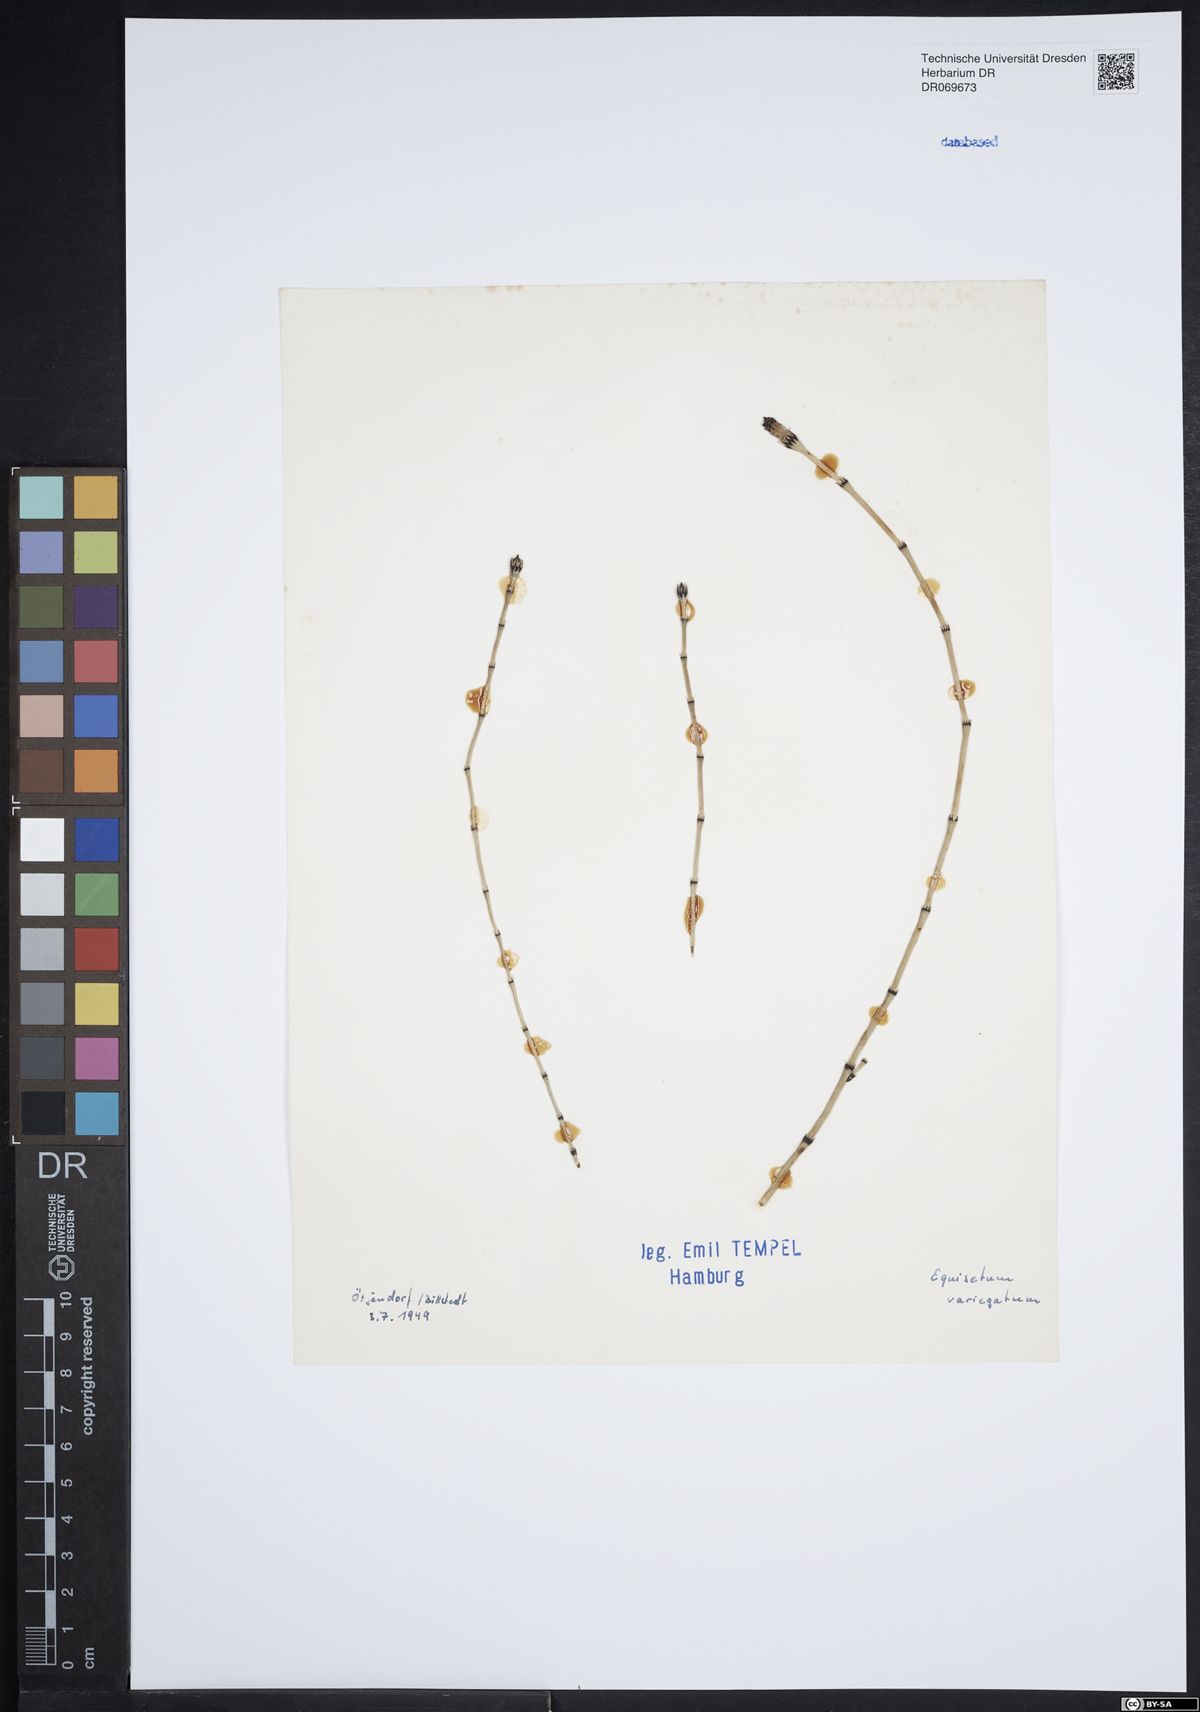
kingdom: Plantae
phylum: Tracheophyta
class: Polypodiopsida
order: Equisetales
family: Equisetaceae
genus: Equisetum
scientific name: Equisetum variegatum
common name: Variegated horsetail
